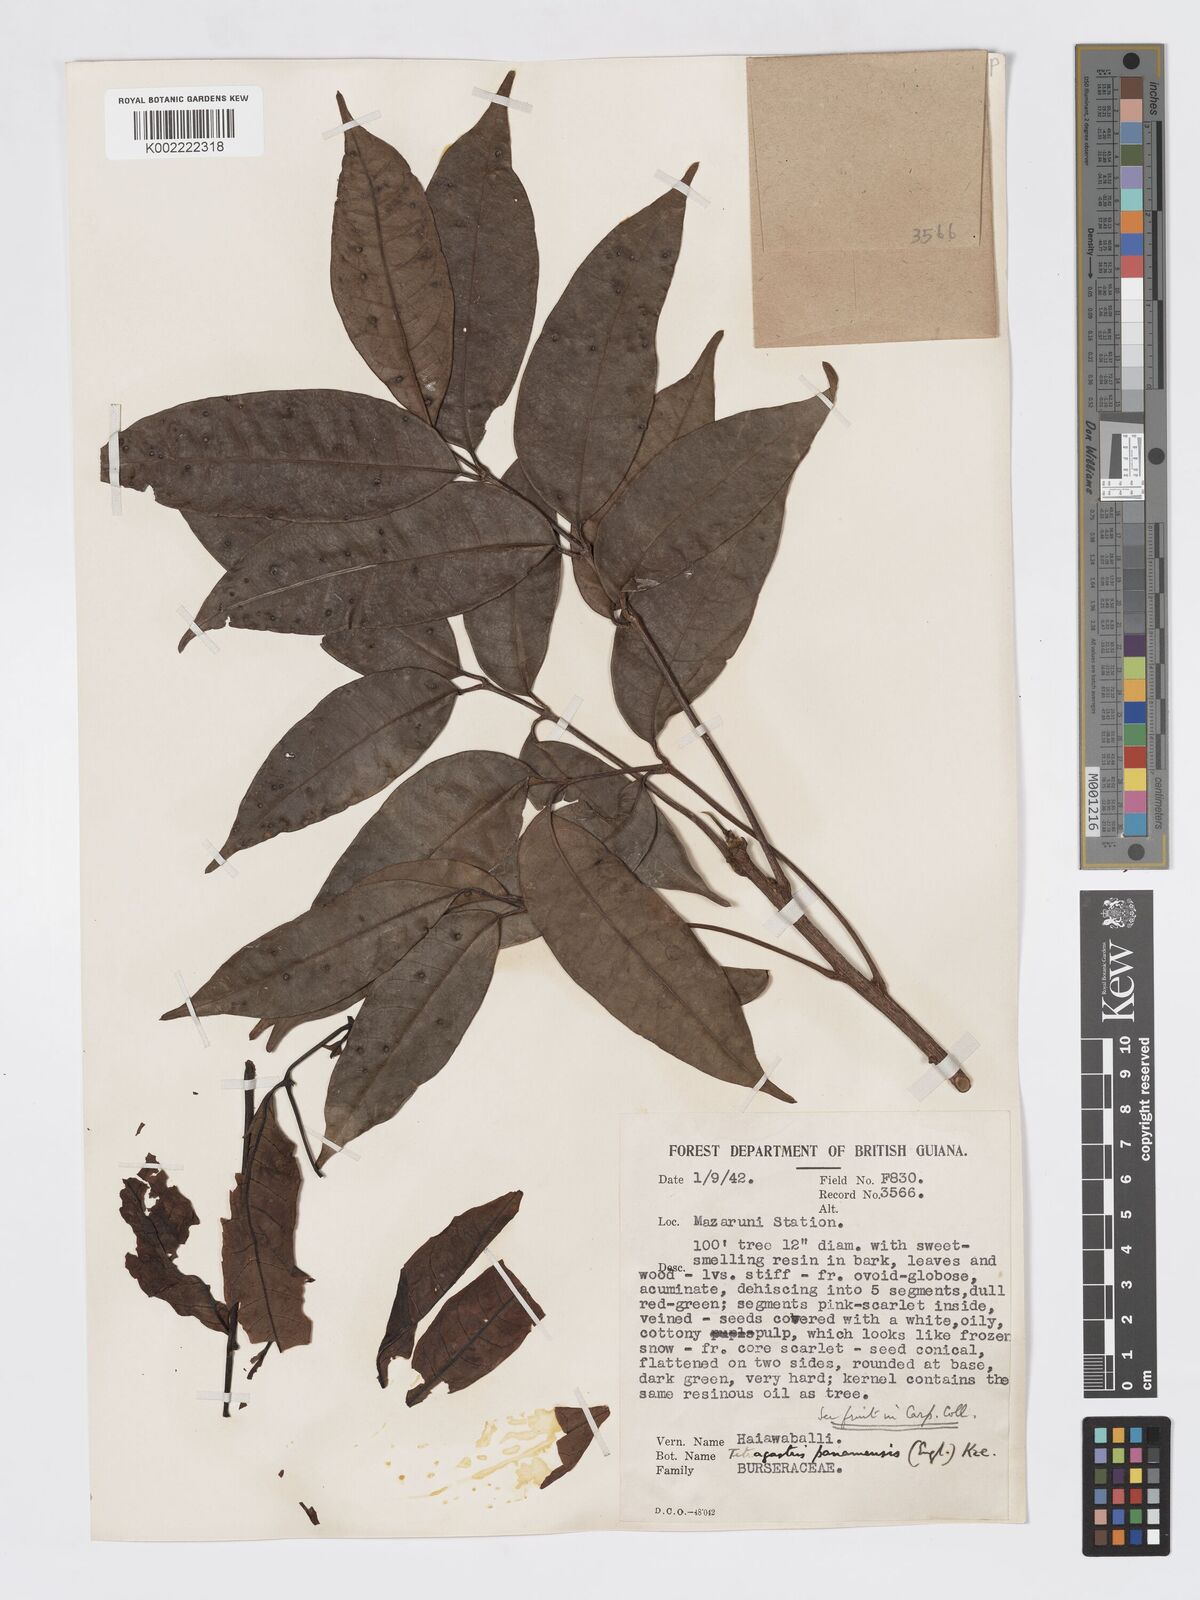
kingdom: Plantae
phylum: Tracheophyta
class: Magnoliopsida
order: Sapindales
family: Burseraceae
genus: Tetragastris
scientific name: Tetragastris panamensis
